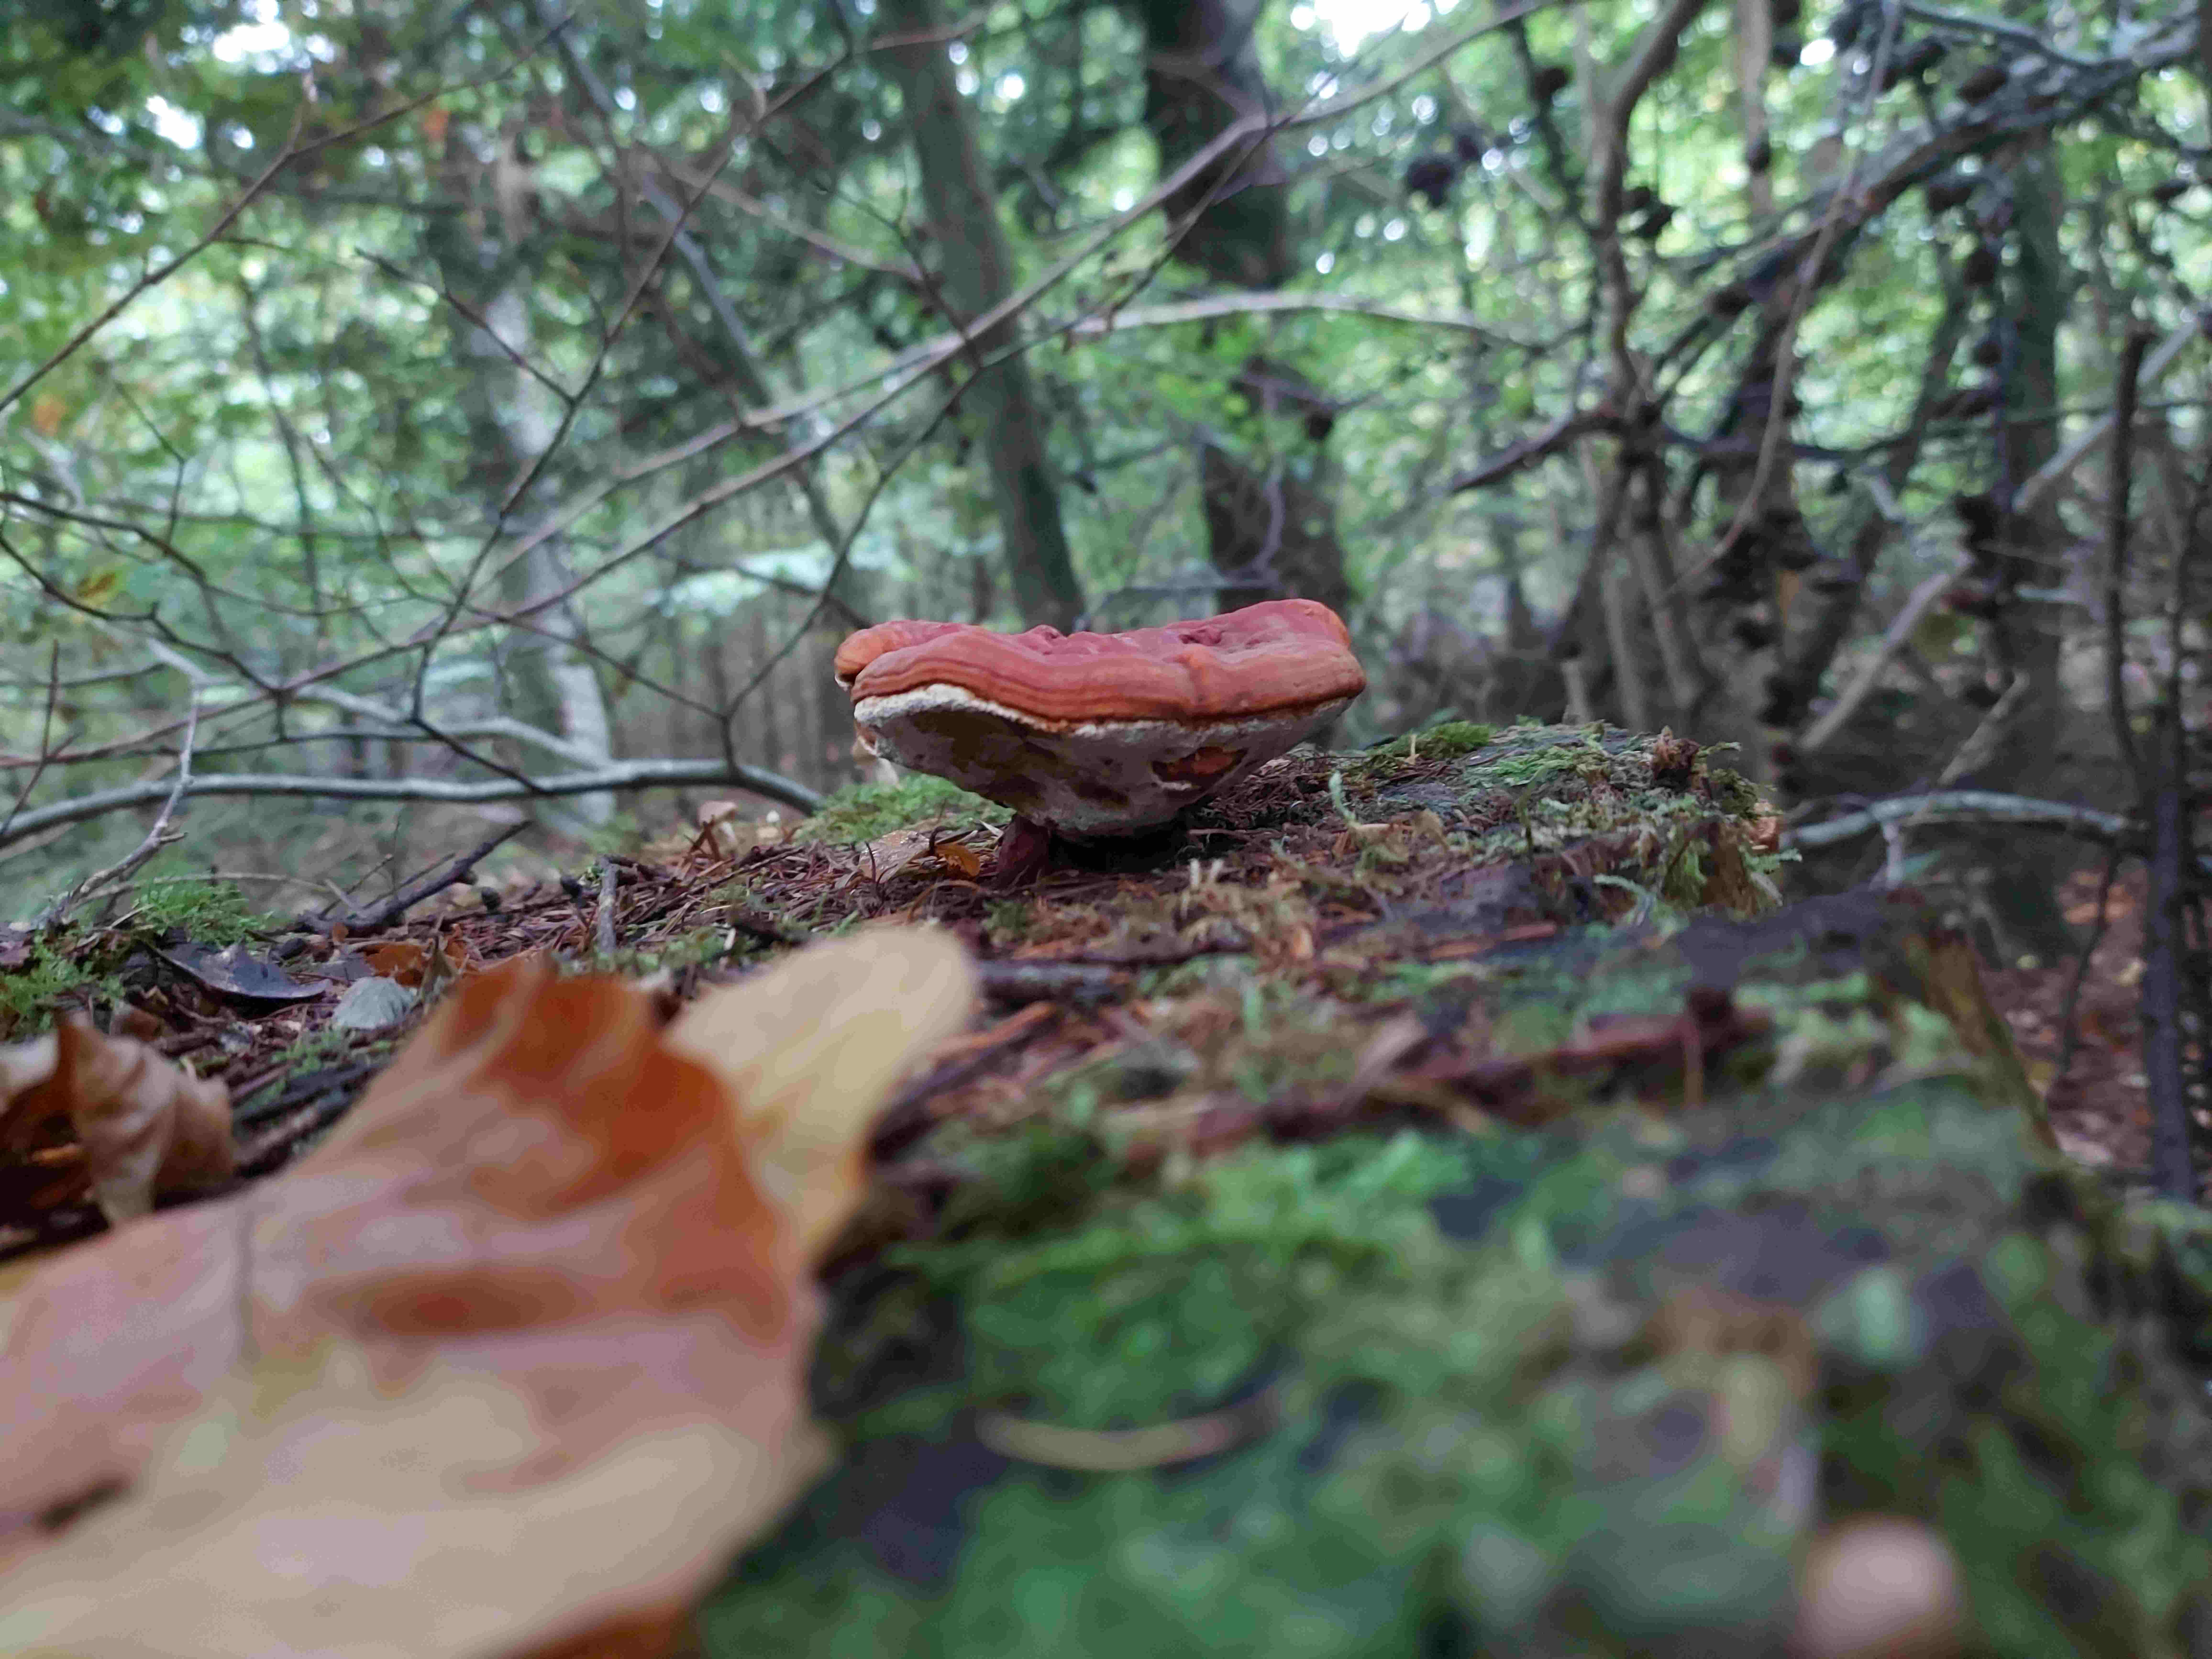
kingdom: Fungi
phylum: Basidiomycota
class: Agaricomycetes
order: Polyporales
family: Polyporaceae
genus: Ganoderma
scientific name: Ganoderma lucidum
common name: skinnende lakporesvamp
